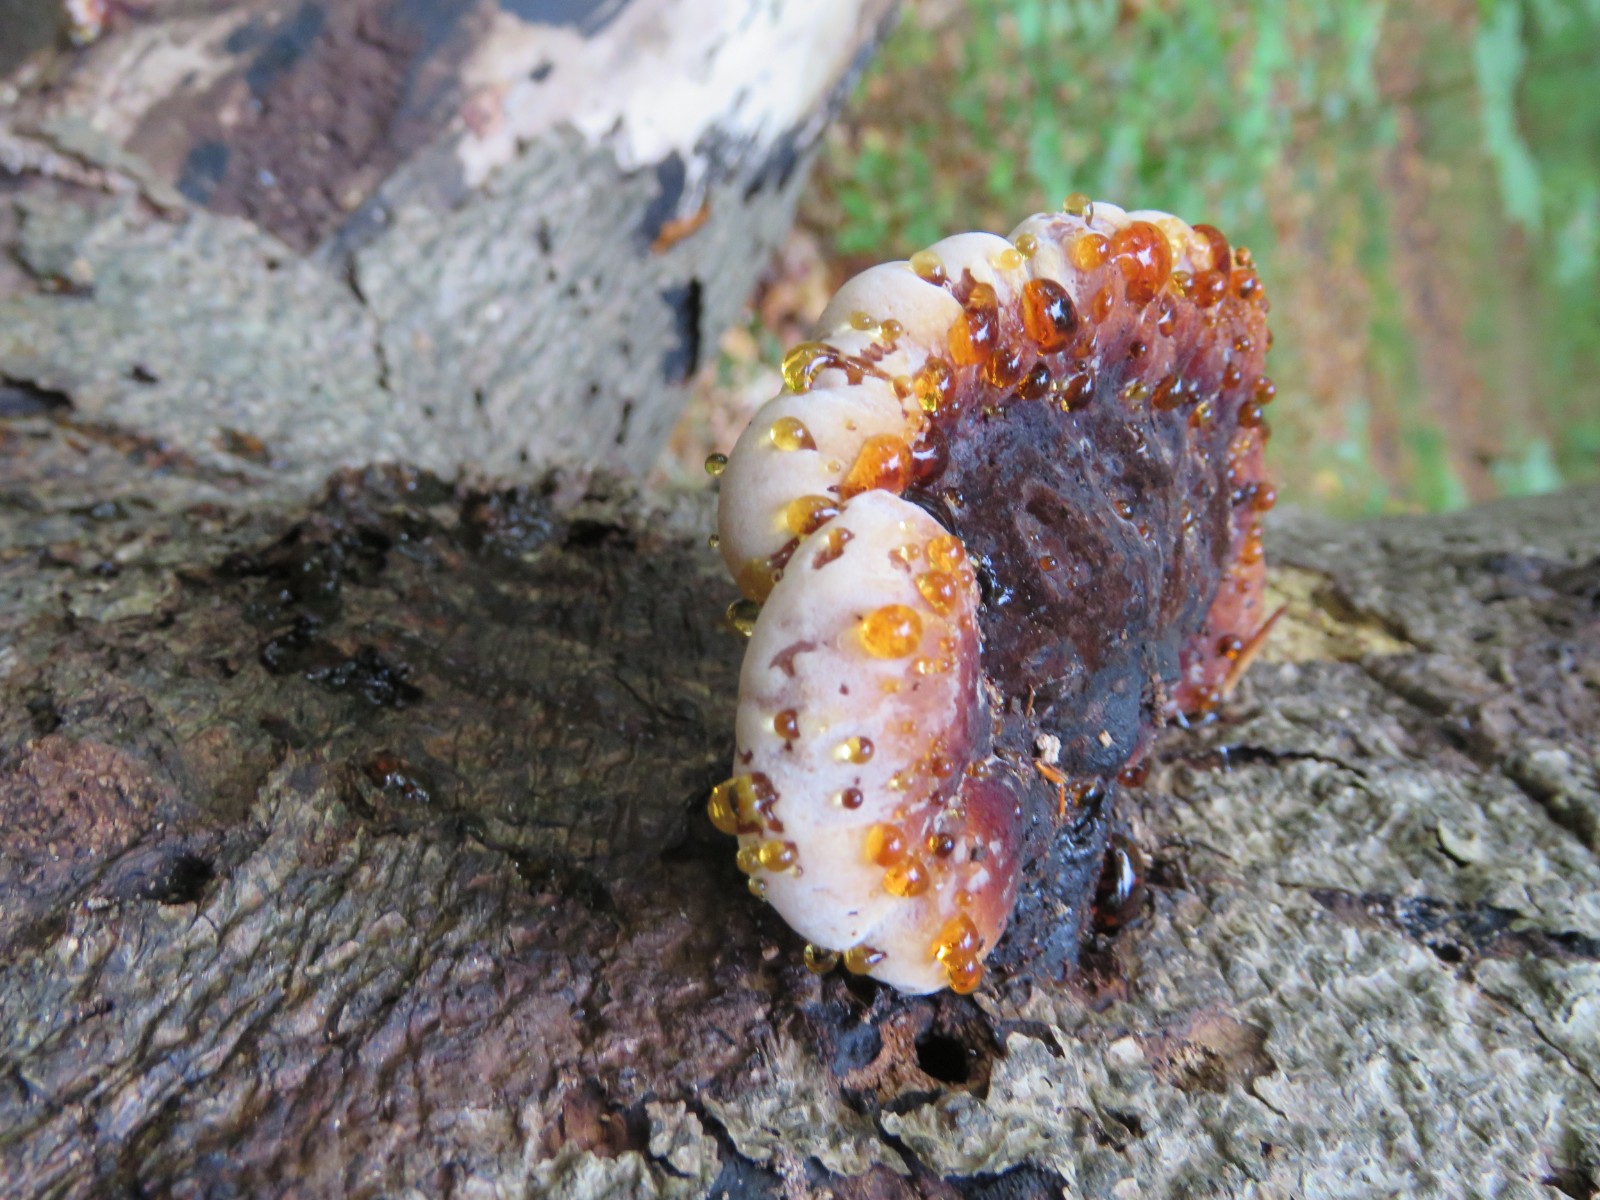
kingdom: Fungi
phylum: Basidiomycota
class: Agaricomycetes
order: Polyporales
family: Ischnodermataceae
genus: Ischnoderma
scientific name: Ischnoderma resinosum
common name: løv-tjæreporesvamp
